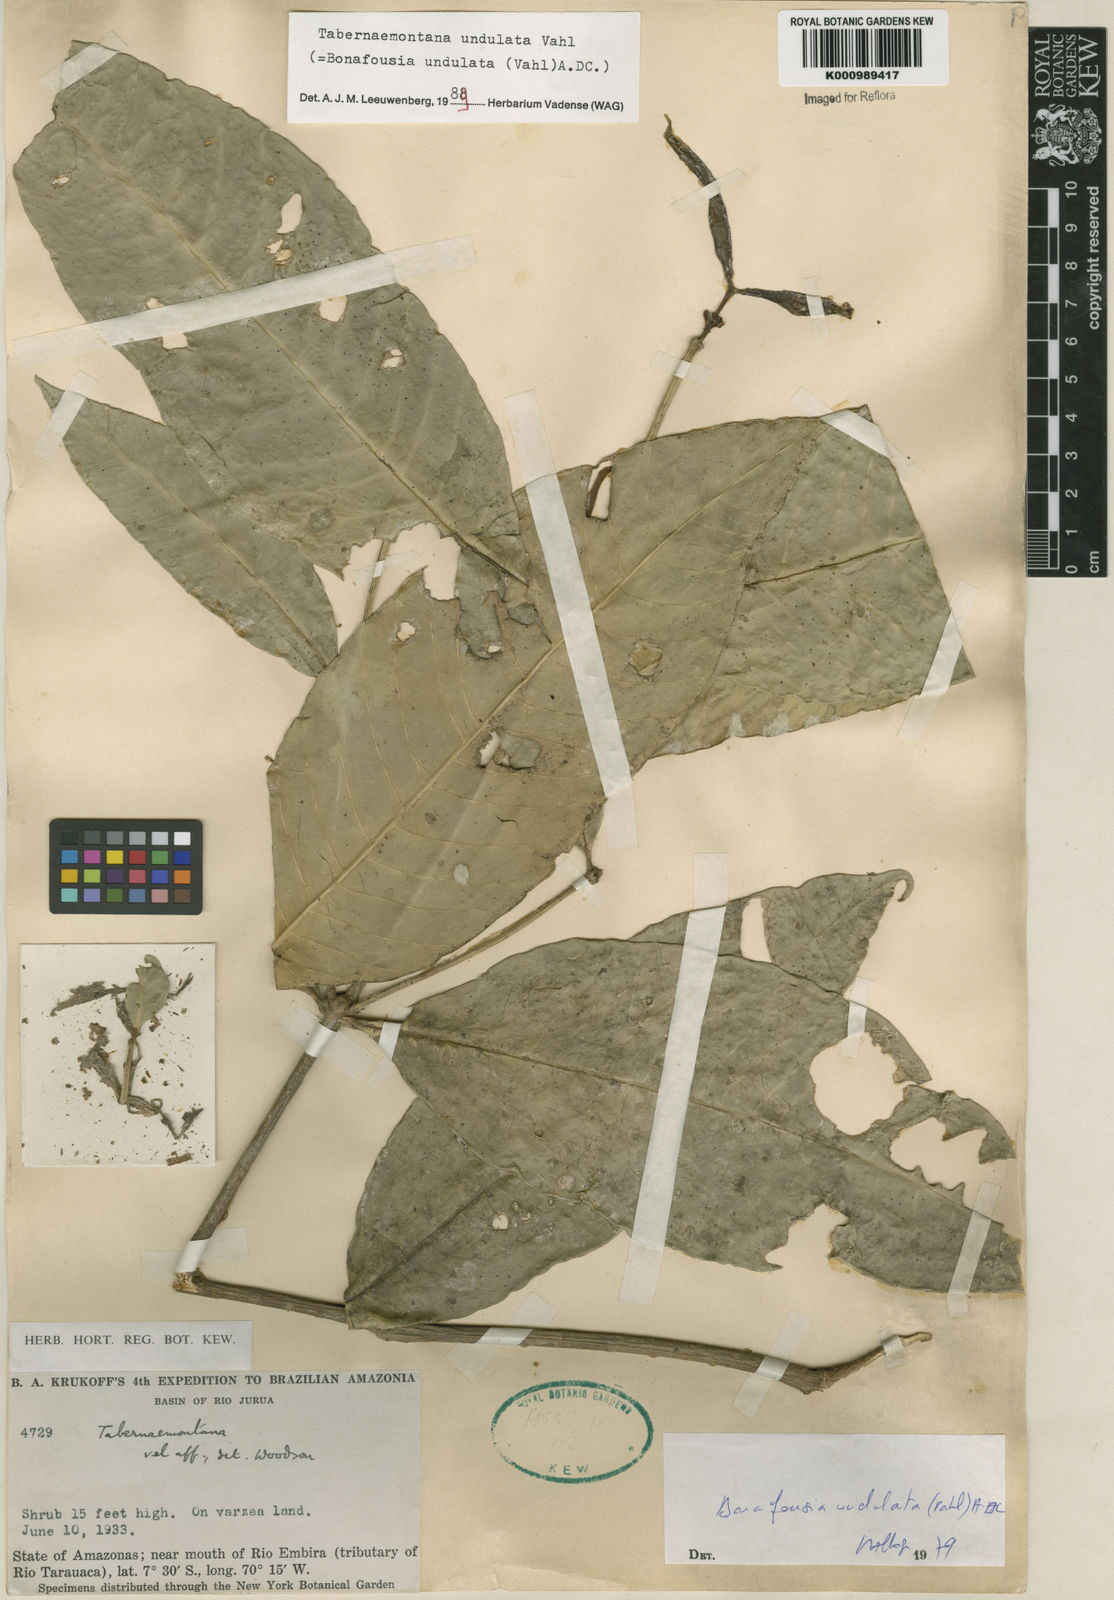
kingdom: Plantae
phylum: Tracheophyta
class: Magnoliopsida
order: Gentianales
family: Apocynaceae
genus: Tabernaemontana
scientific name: Tabernaemontana undulata
